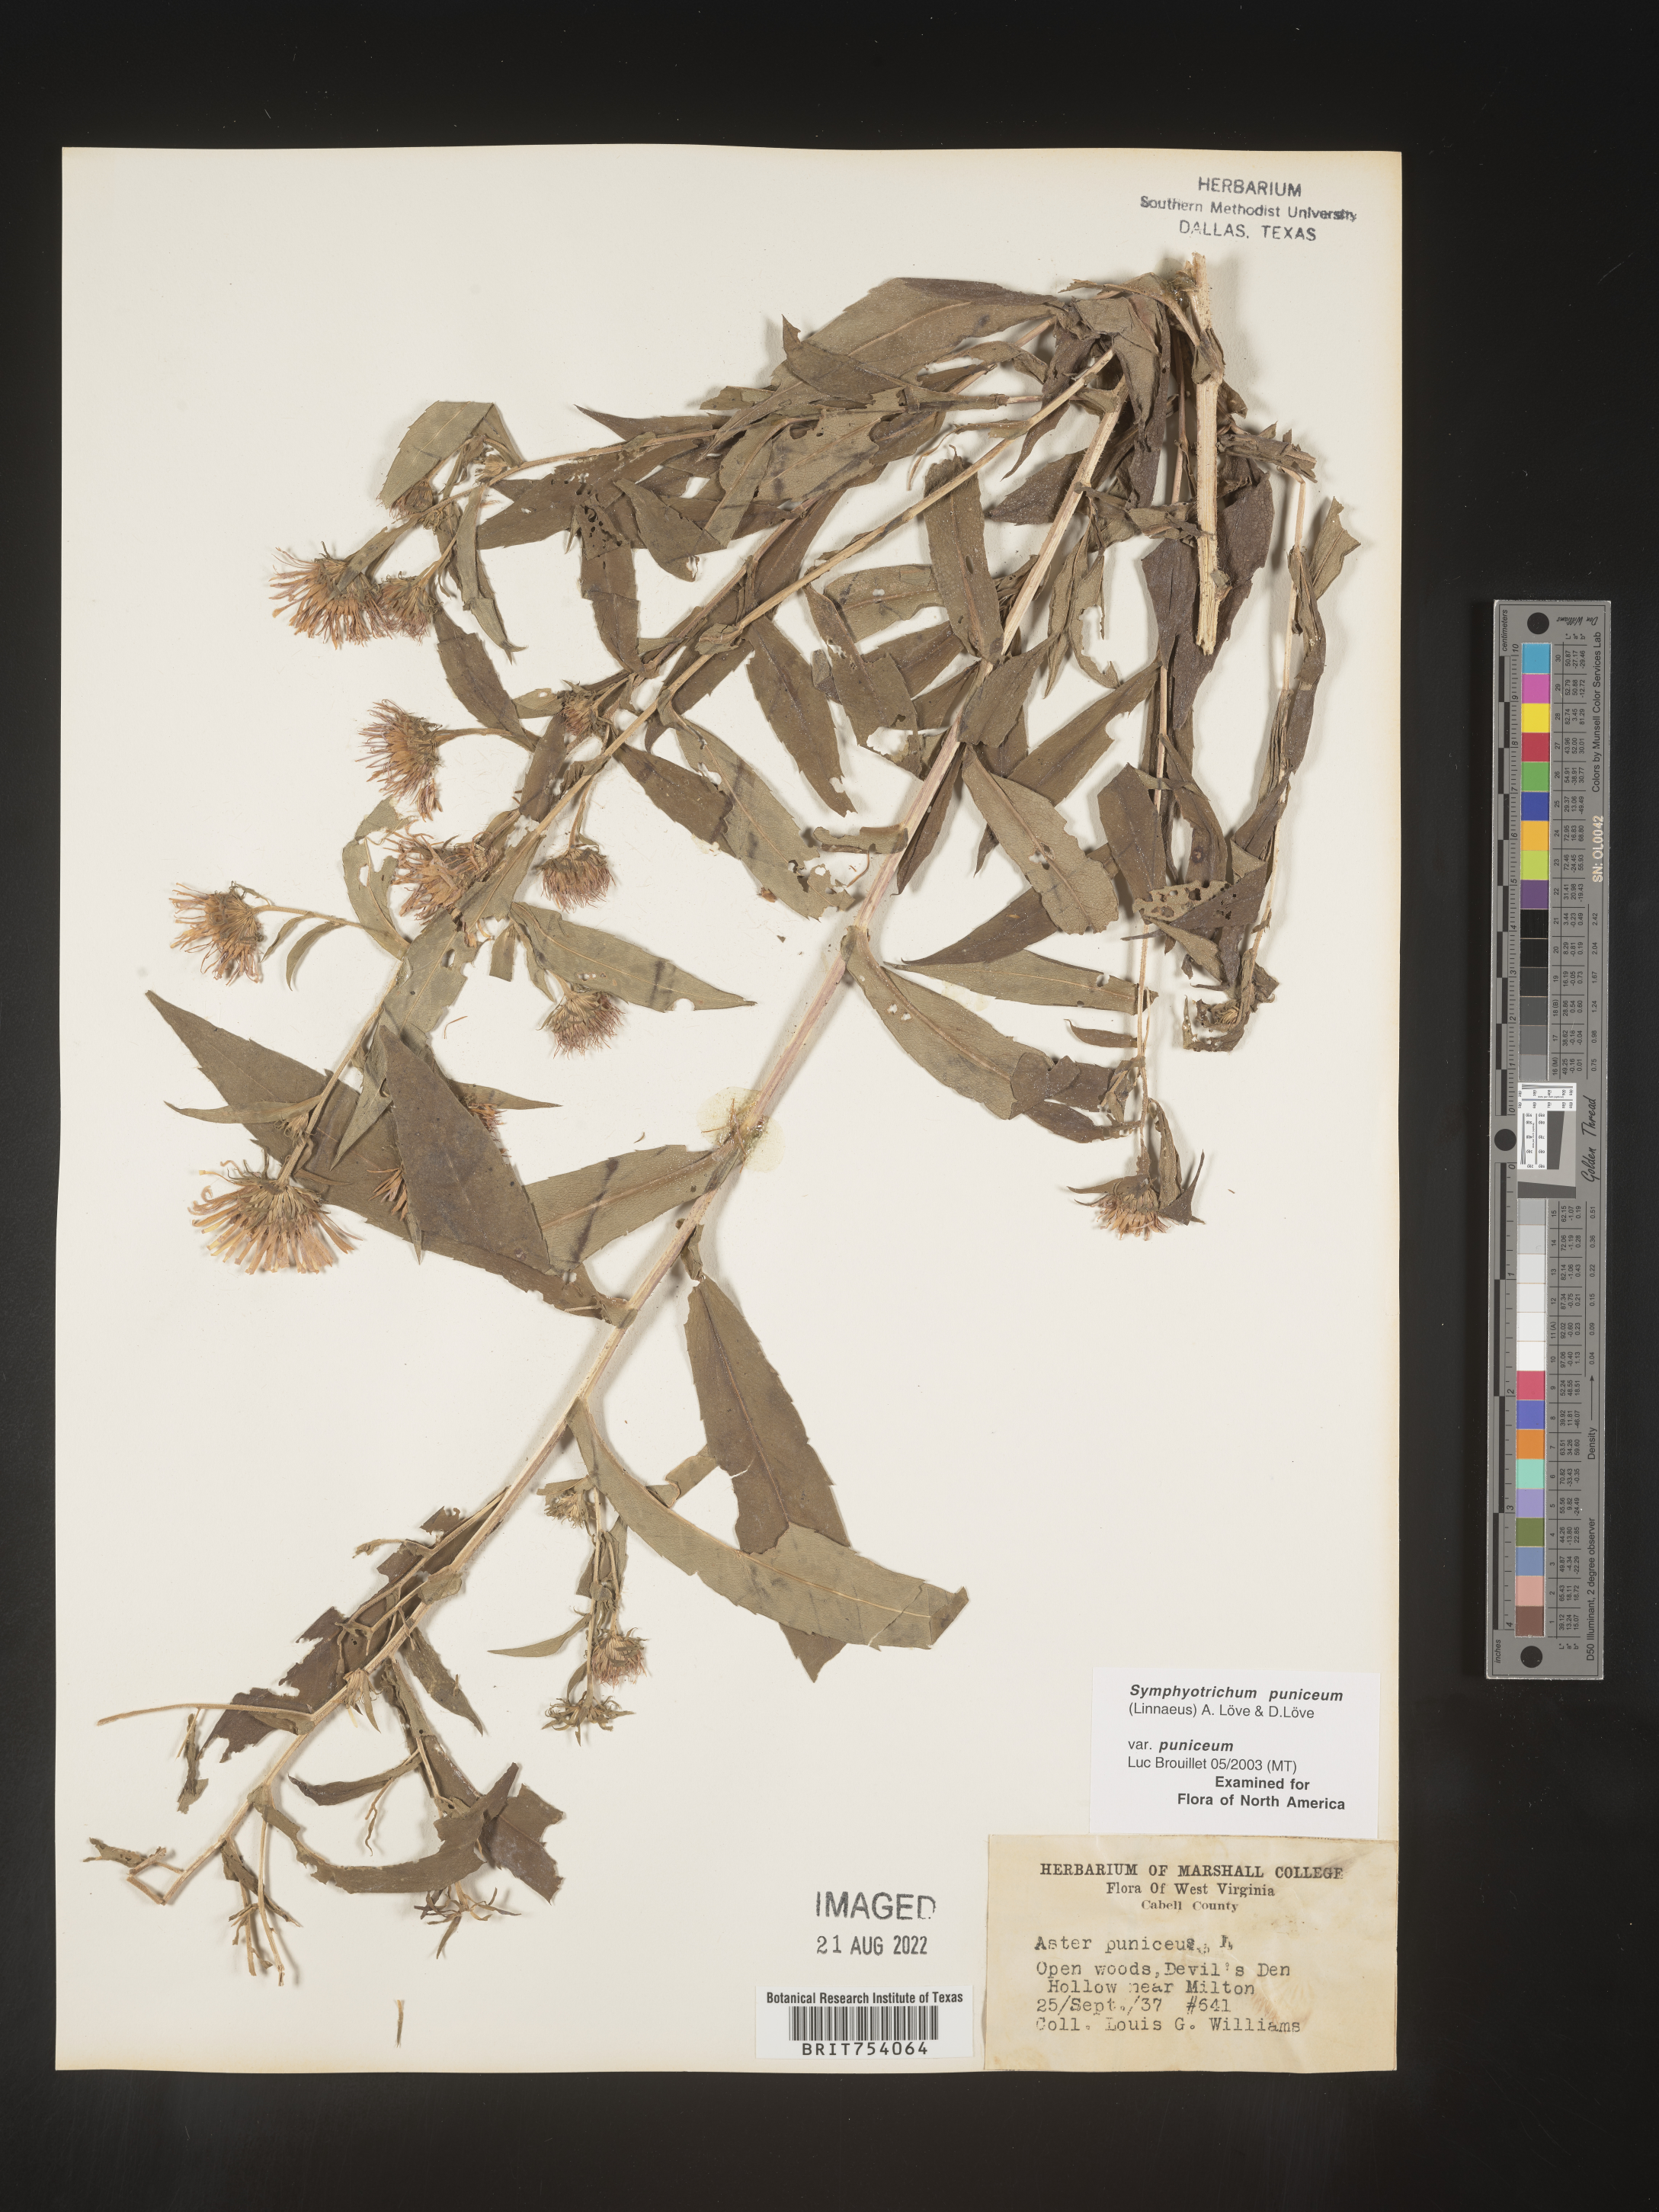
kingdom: Plantae
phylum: Tracheophyta
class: Magnoliopsida
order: Asterales
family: Asteraceae
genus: Symphyotrichum
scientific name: Symphyotrichum puniceum
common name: Bog aster
